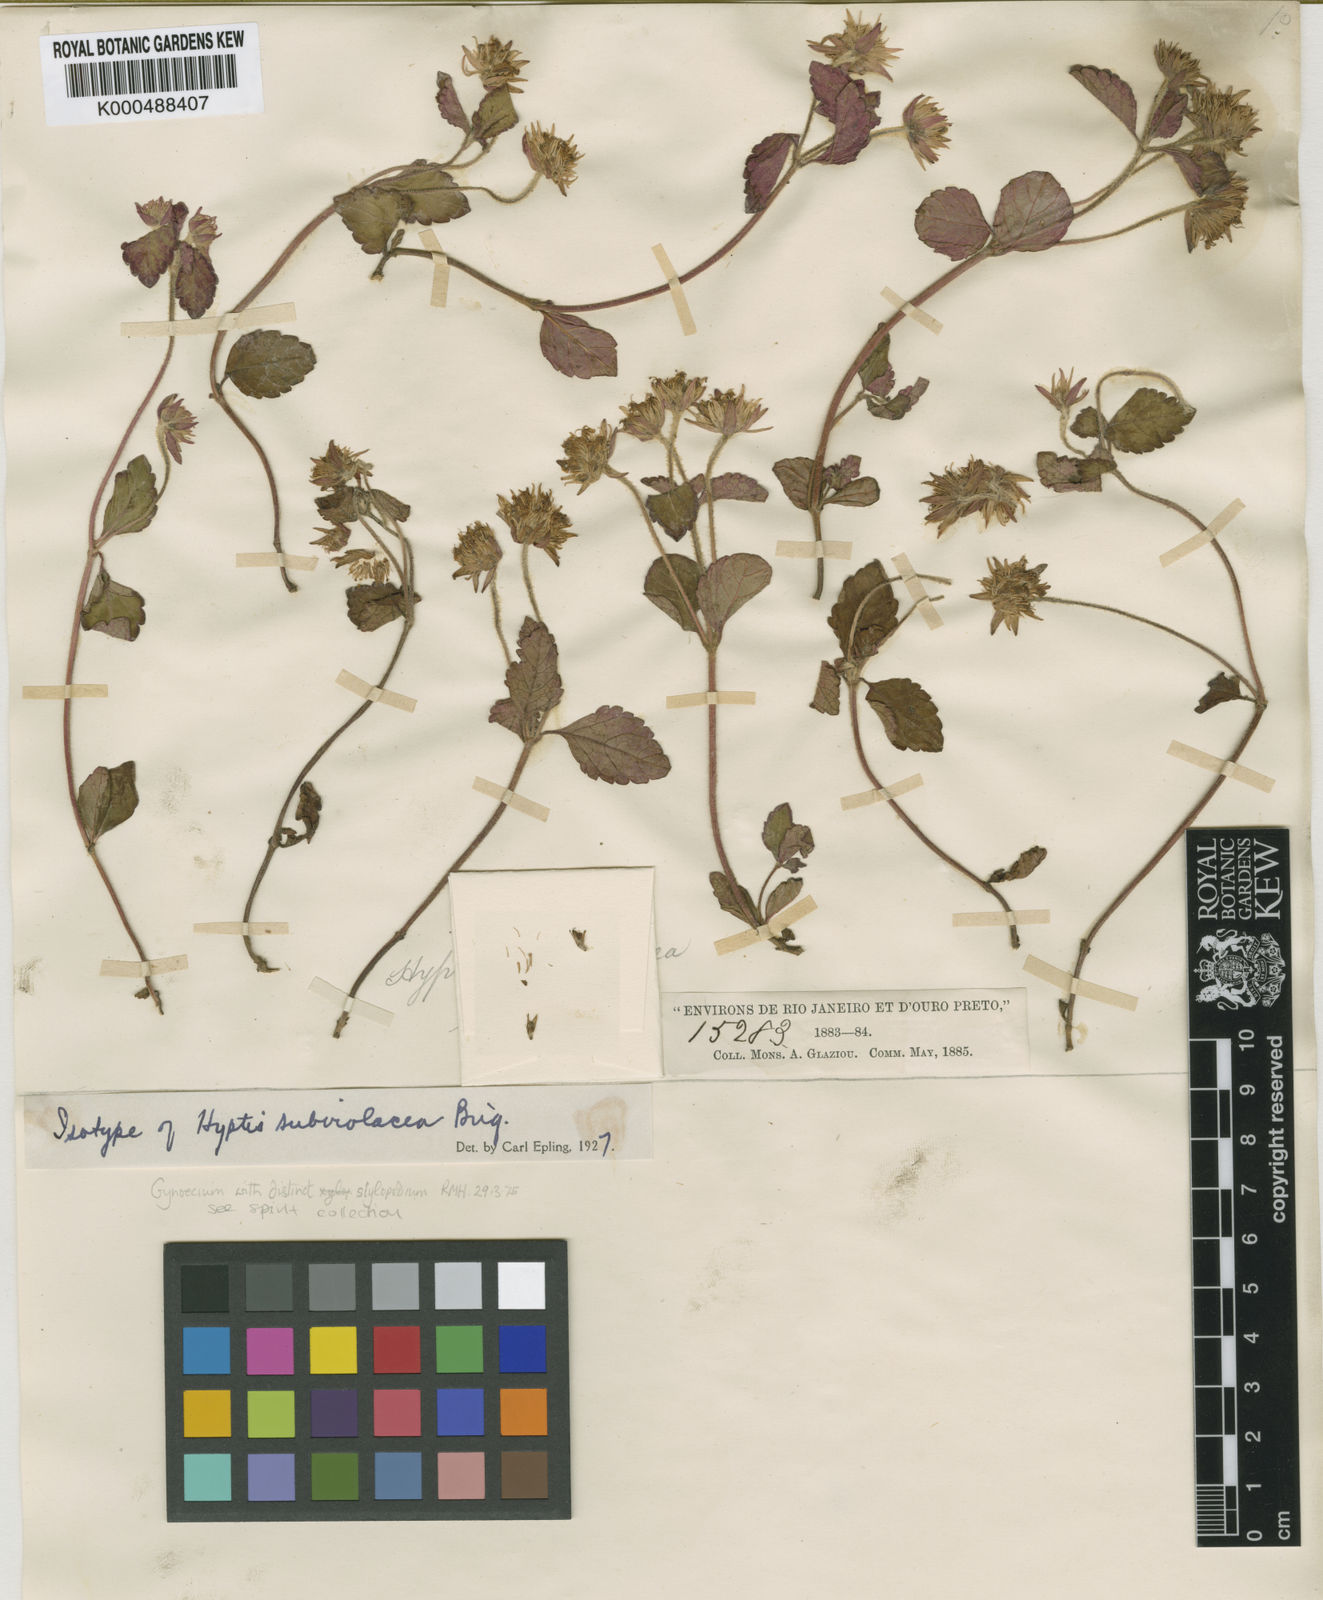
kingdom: Plantae
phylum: Tracheophyta
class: Magnoliopsida
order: Lamiales
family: Lamiaceae
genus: Hyptis
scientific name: Hyptis subviolacea
